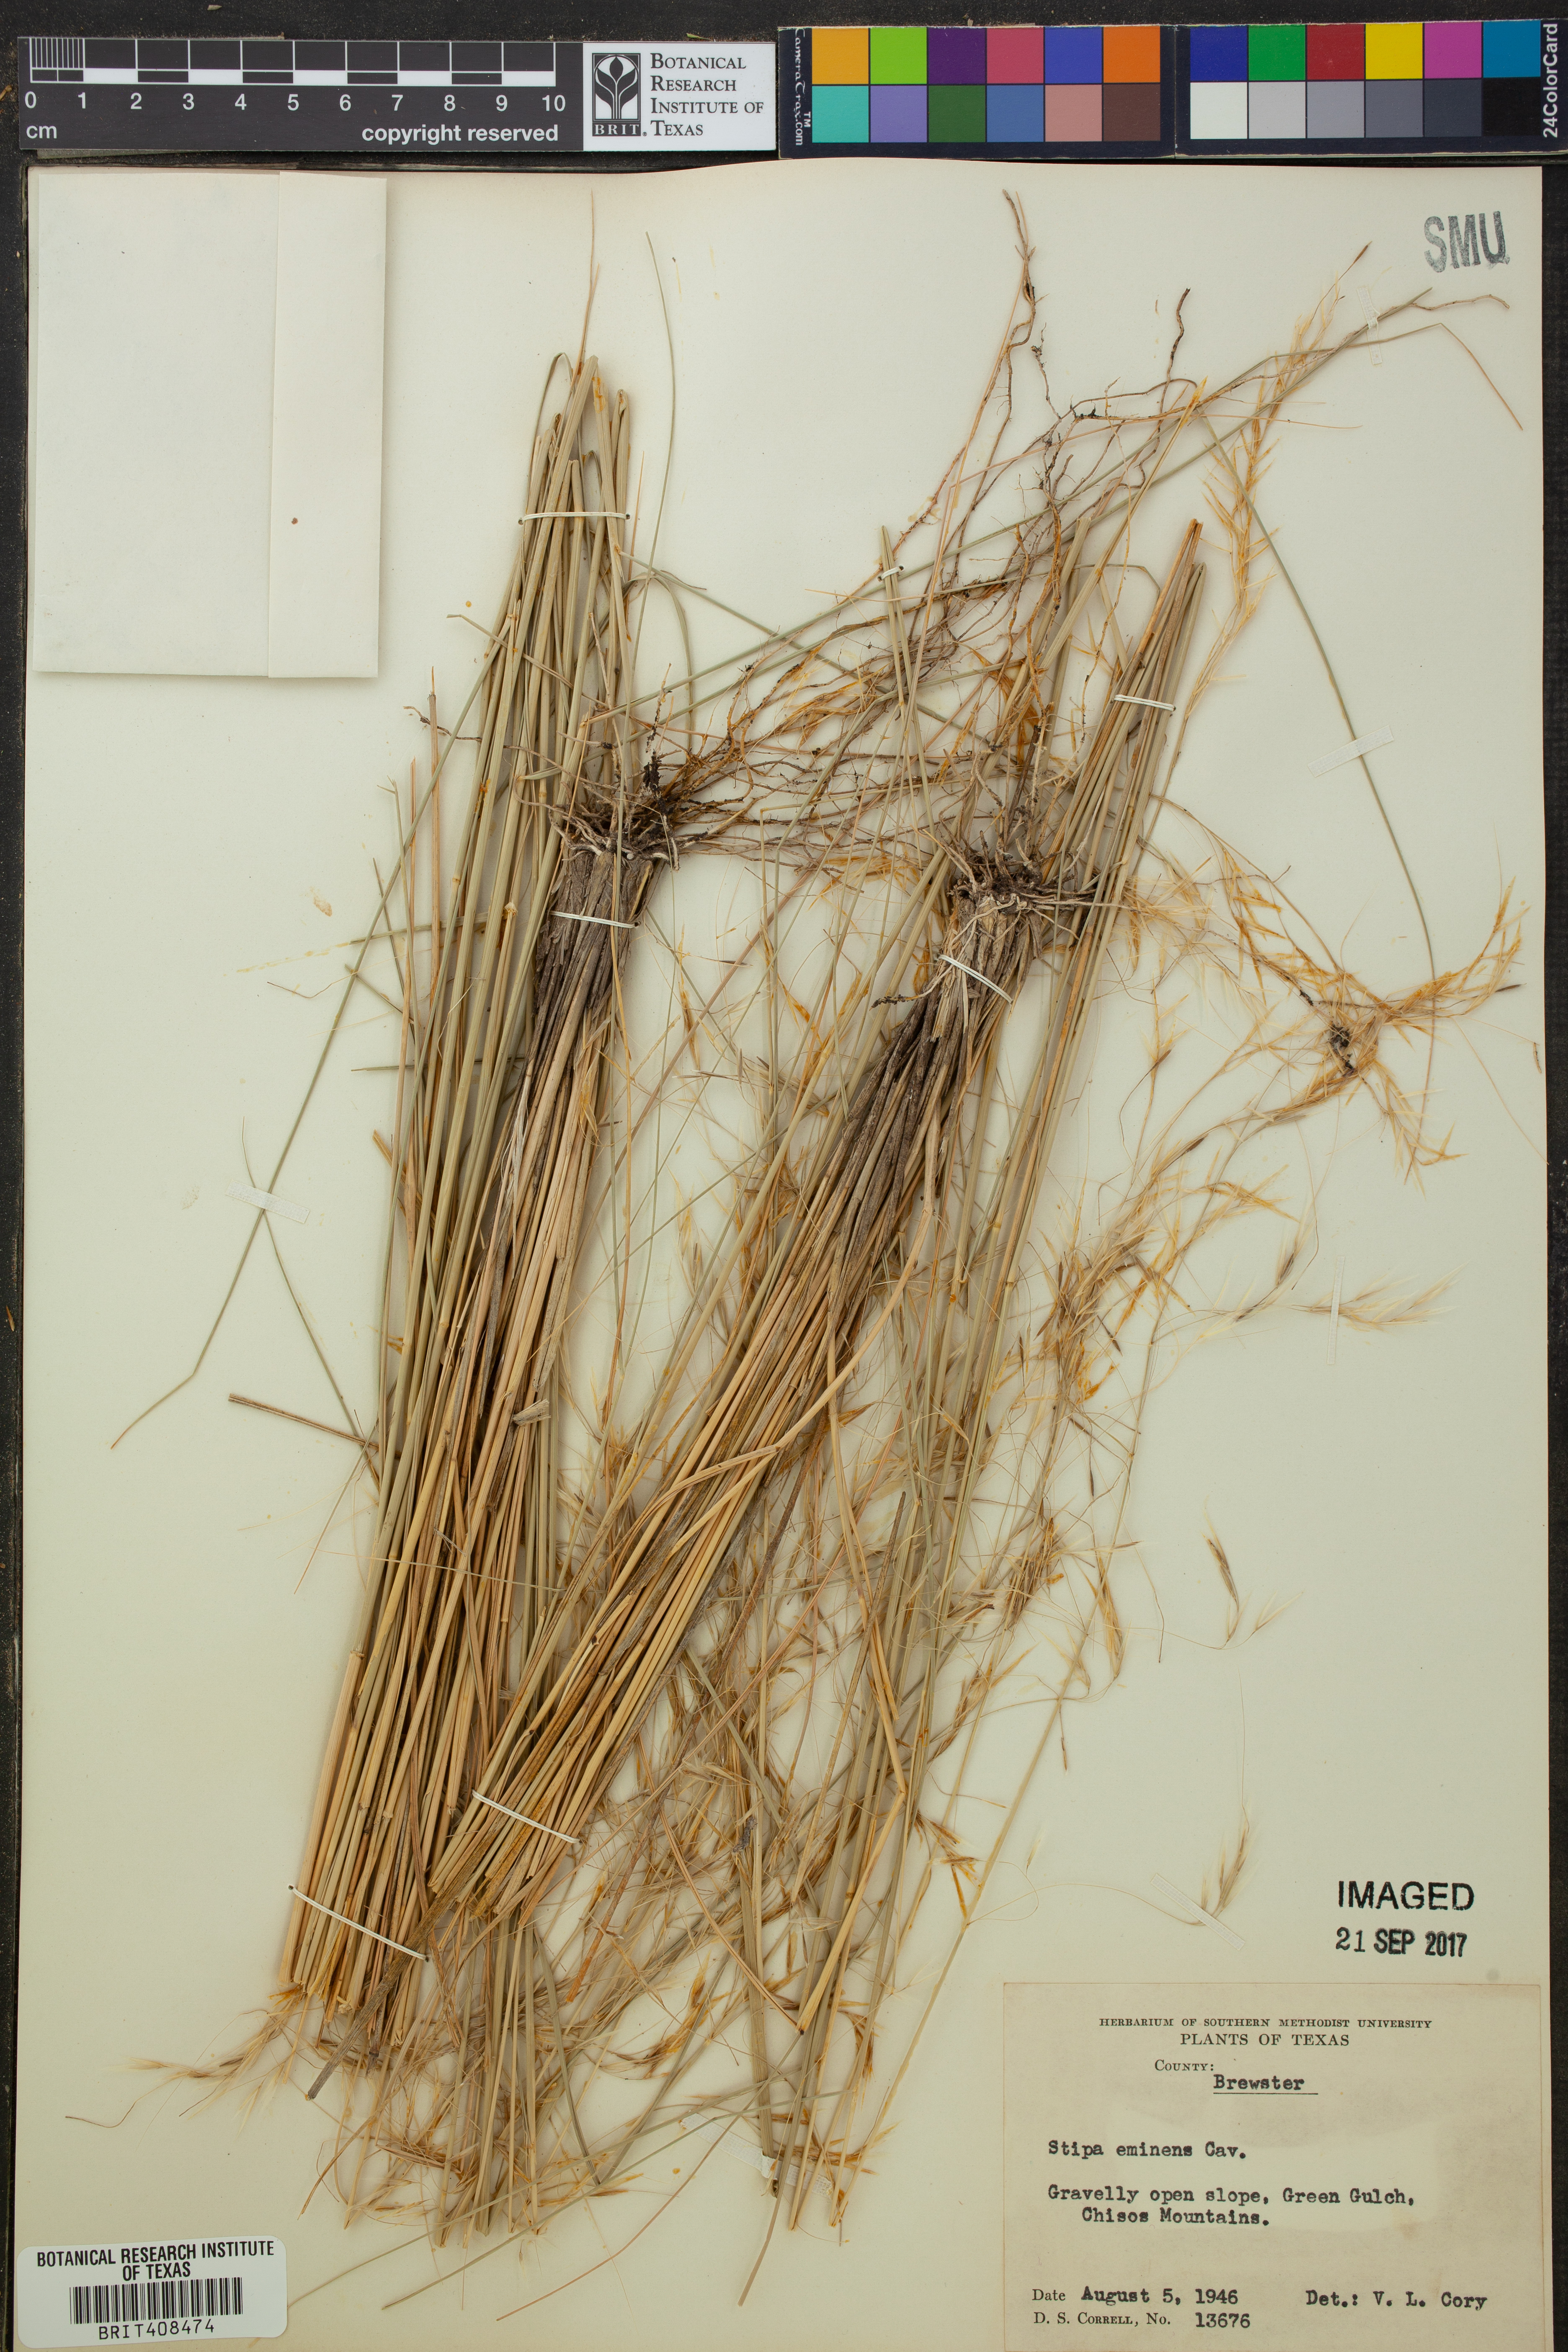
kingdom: Plantae
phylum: Tracheophyta
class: Liliopsida
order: Poales
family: Poaceae
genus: Pseudoeriocoma
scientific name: Pseudoeriocoma eminens
